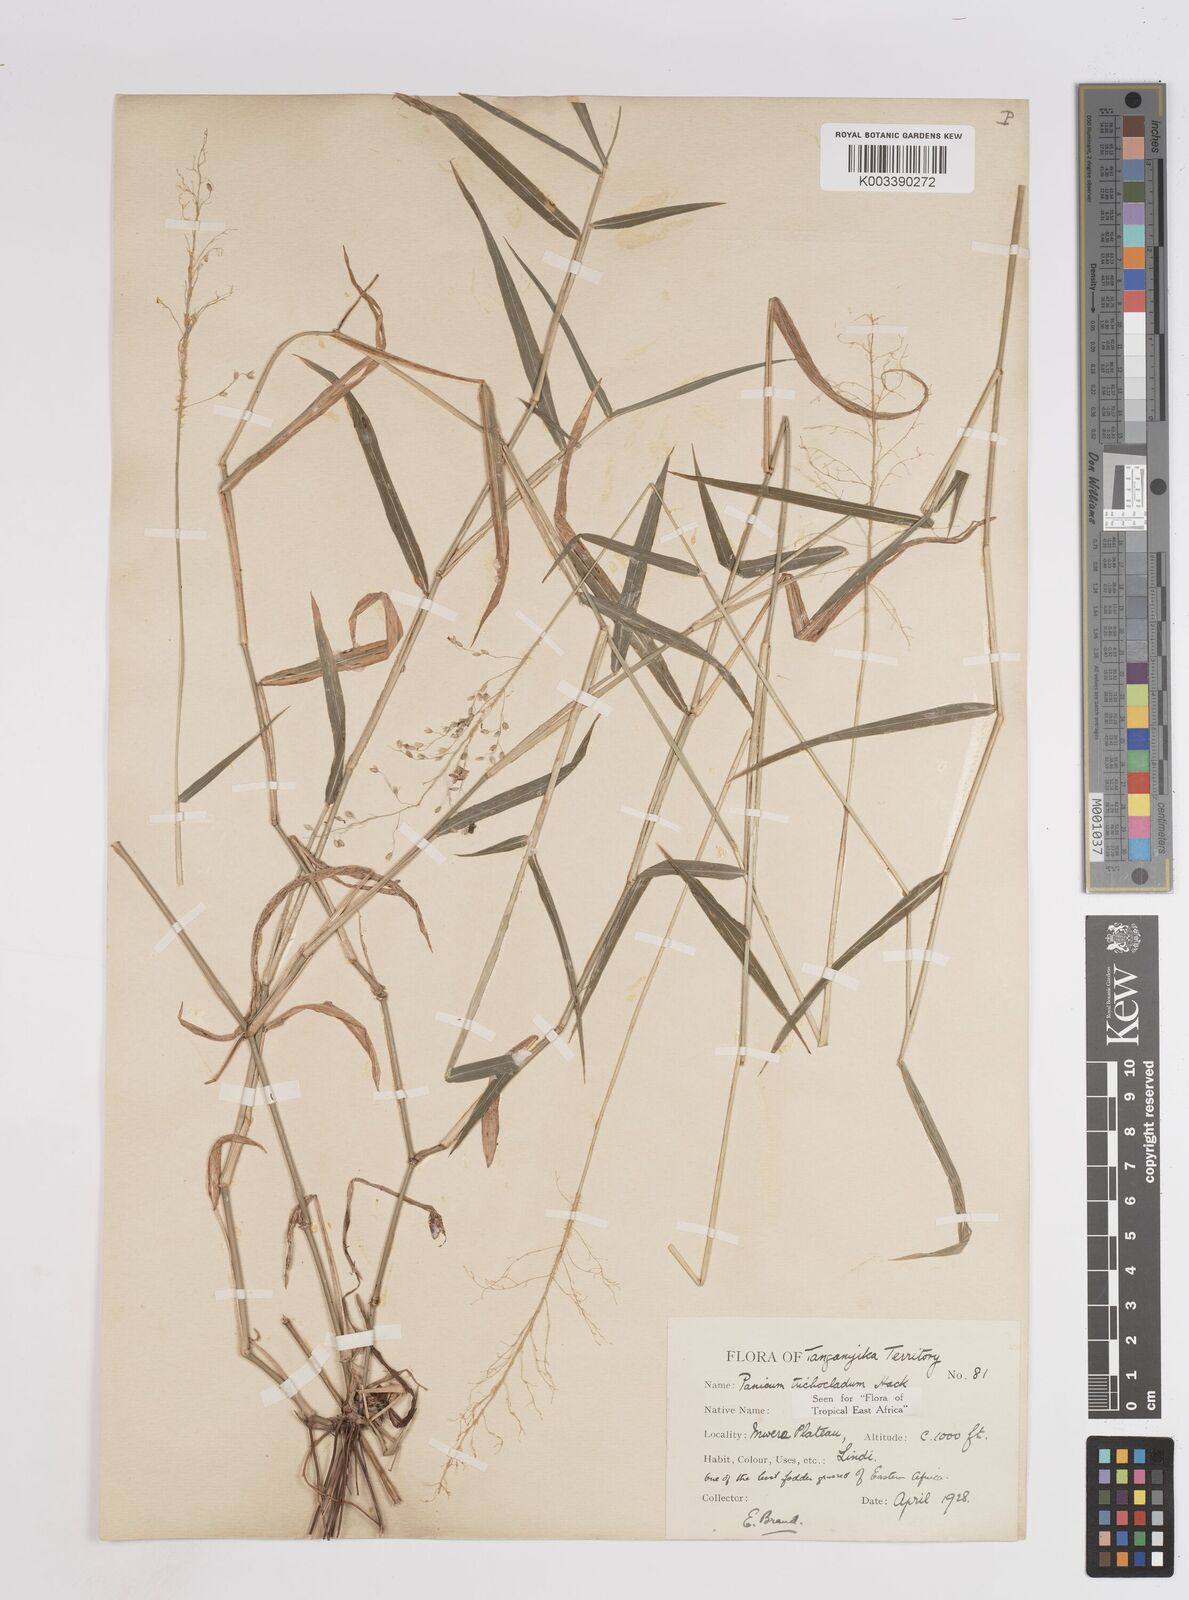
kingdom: Plantae
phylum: Tracheophyta
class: Liliopsida
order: Poales
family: Poaceae
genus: Panicum
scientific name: Panicum trichocladum
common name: Donkey grass
